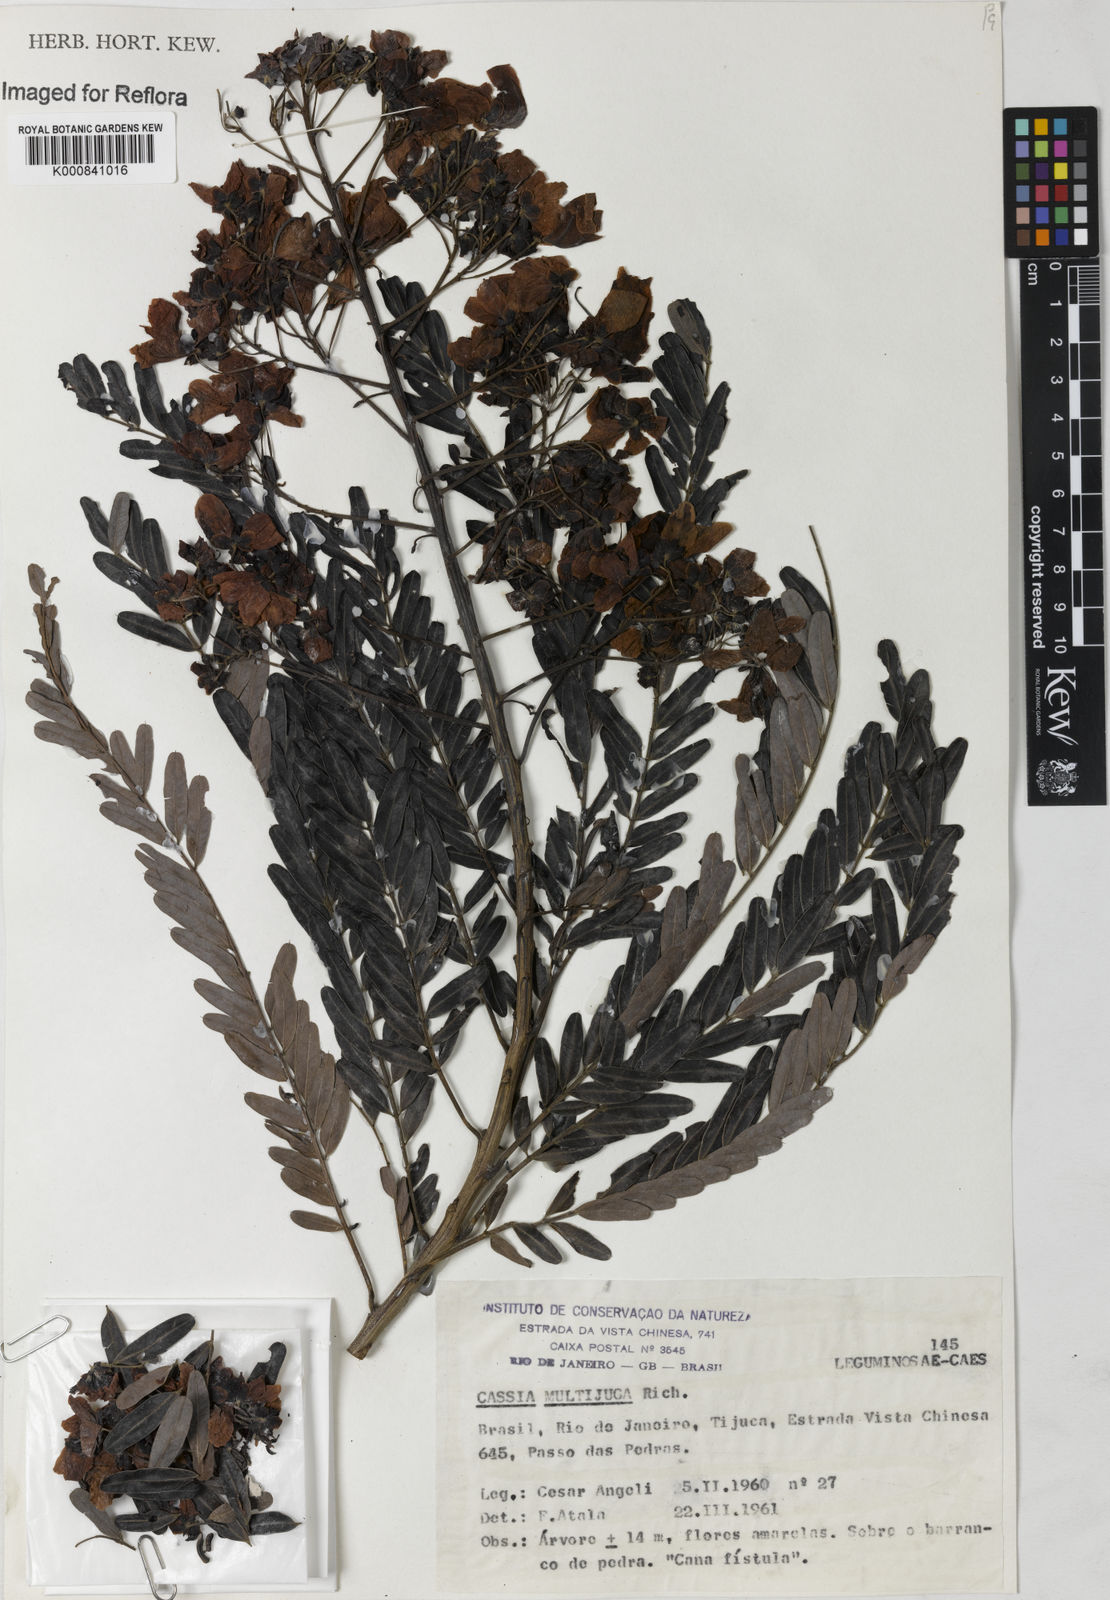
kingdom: Plantae
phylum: Tracheophyta
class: Magnoliopsida
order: Fabales
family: Fabaceae
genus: Senna
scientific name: Senna multijuga
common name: False sicklepod
